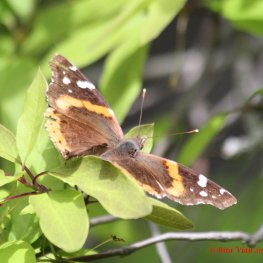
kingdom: Animalia
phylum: Arthropoda
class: Insecta
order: Lepidoptera
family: Nymphalidae
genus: Vanessa
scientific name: Vanessa atalanta
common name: Red Admiral
